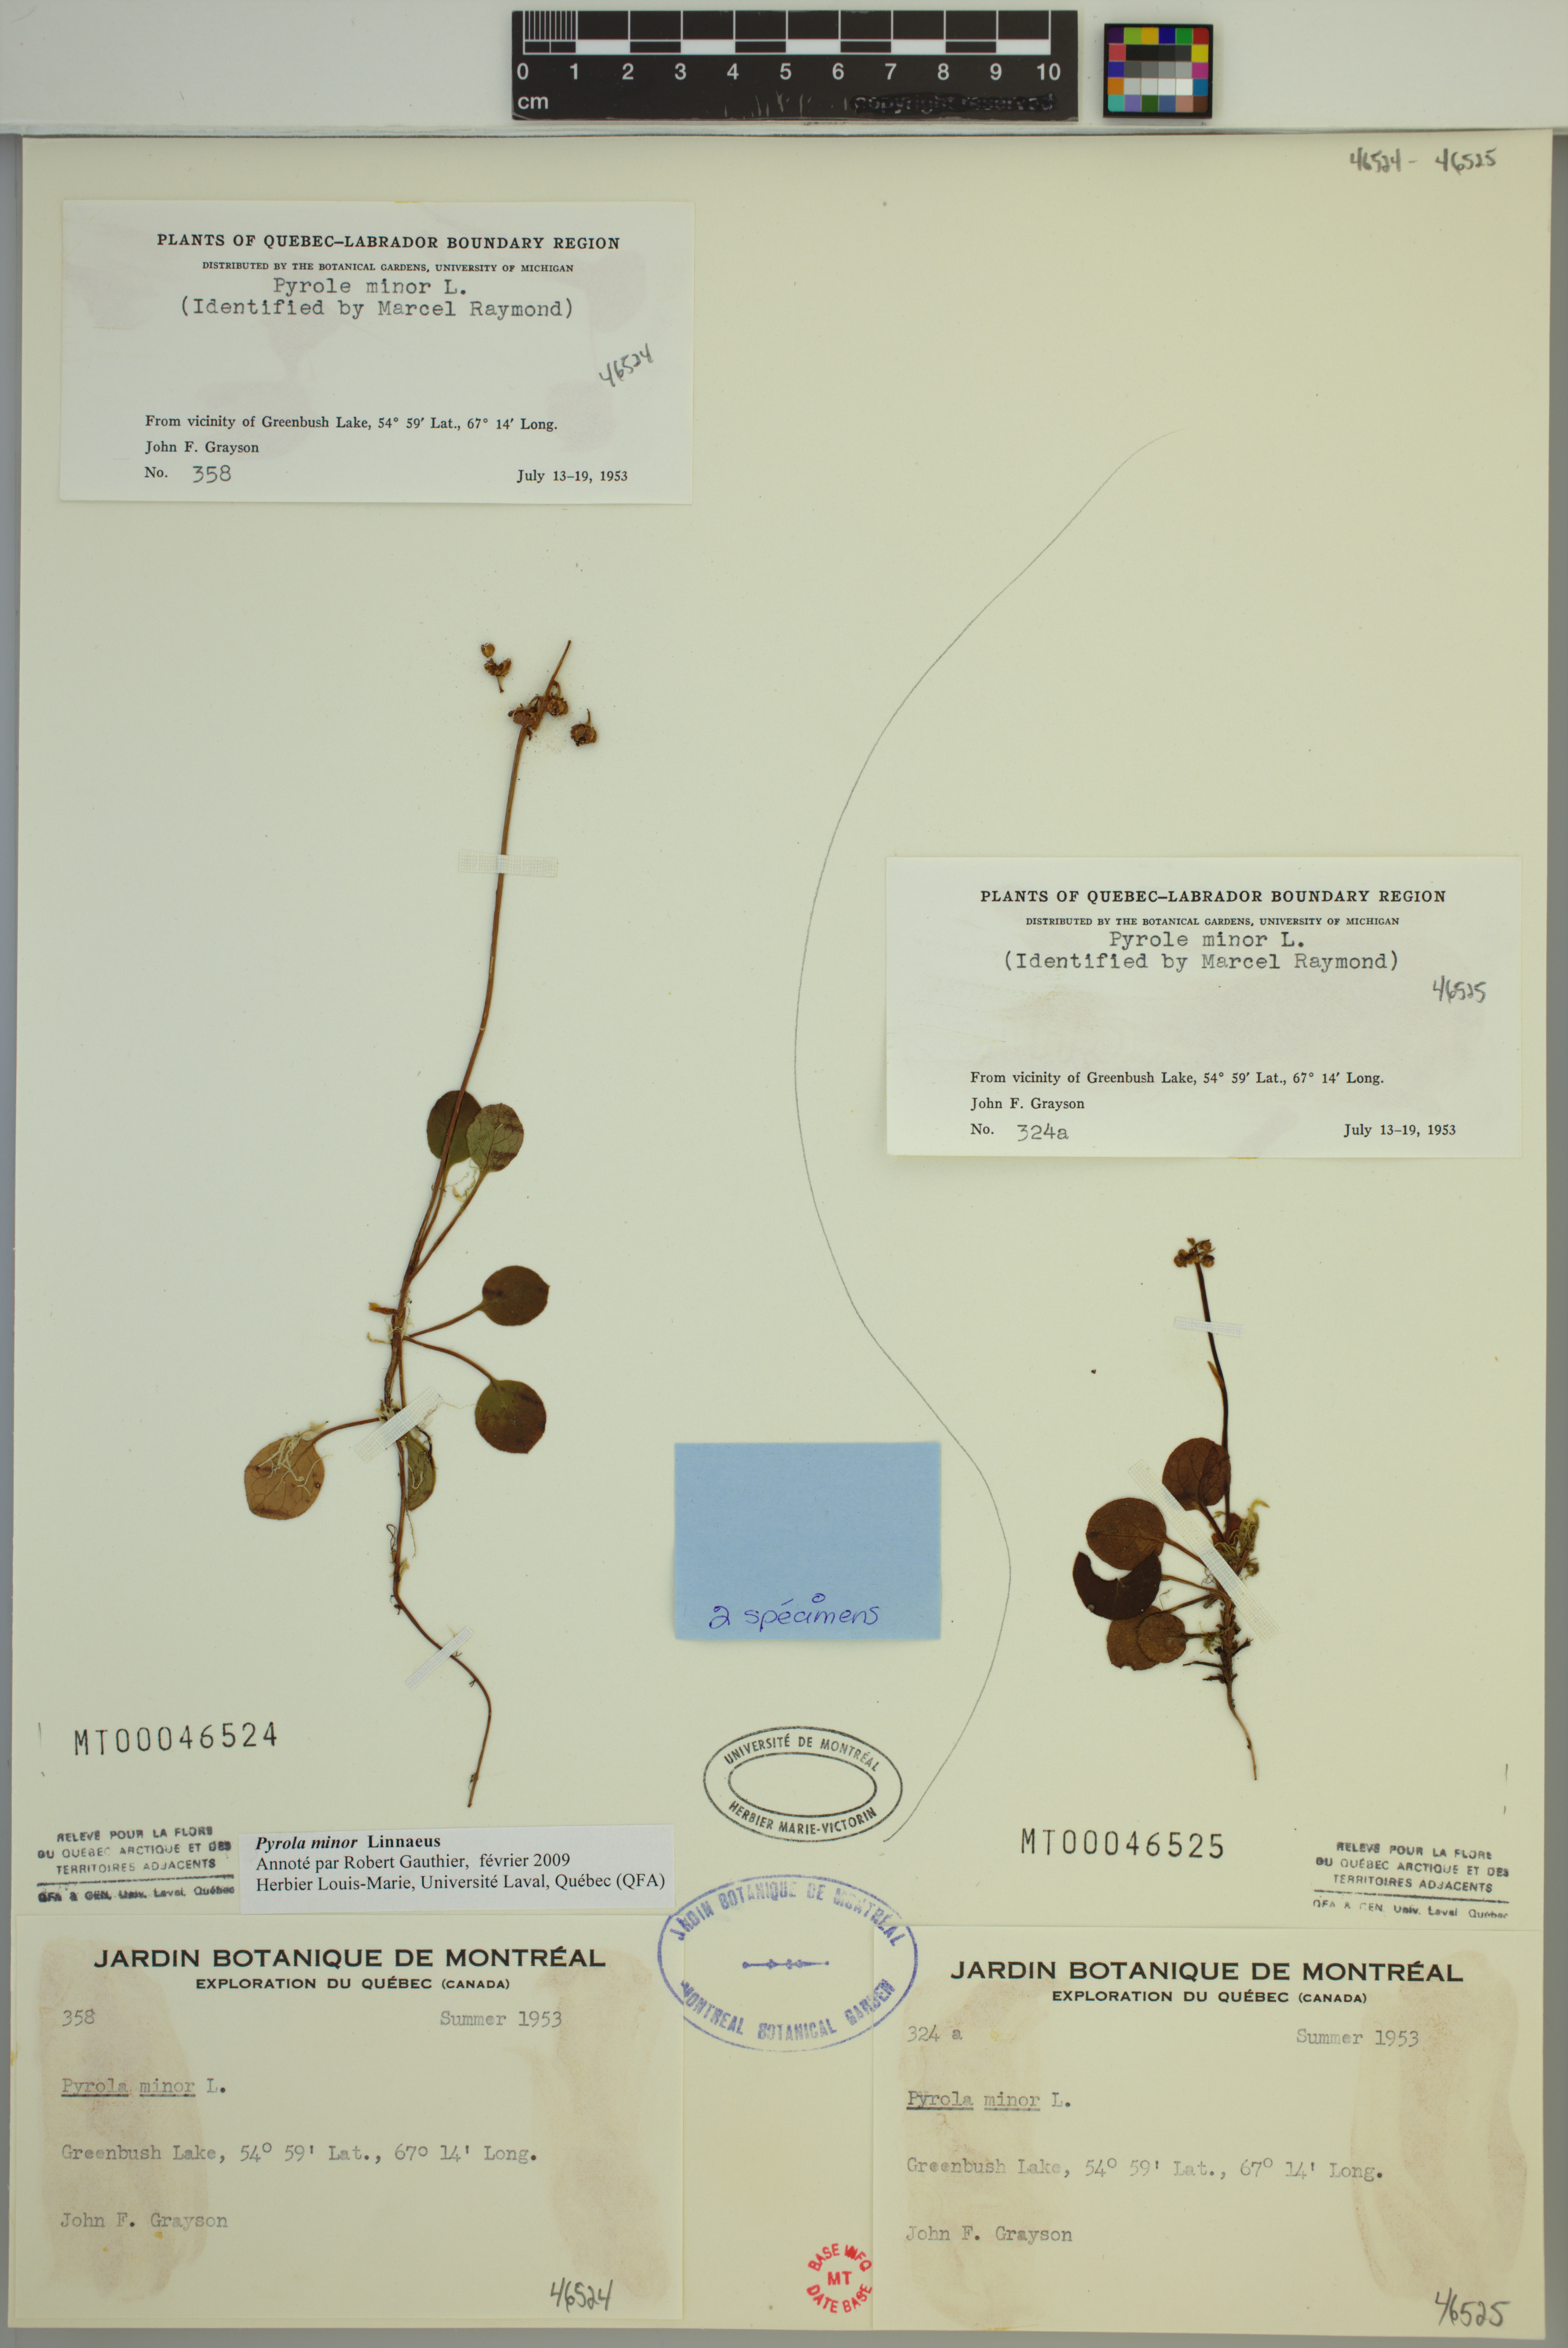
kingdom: Plantae
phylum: Tracheophyta
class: Magnoliopsida
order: Ericales
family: Ericaceae
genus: Pyrola
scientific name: Pyrola minor
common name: Common wintergreen
